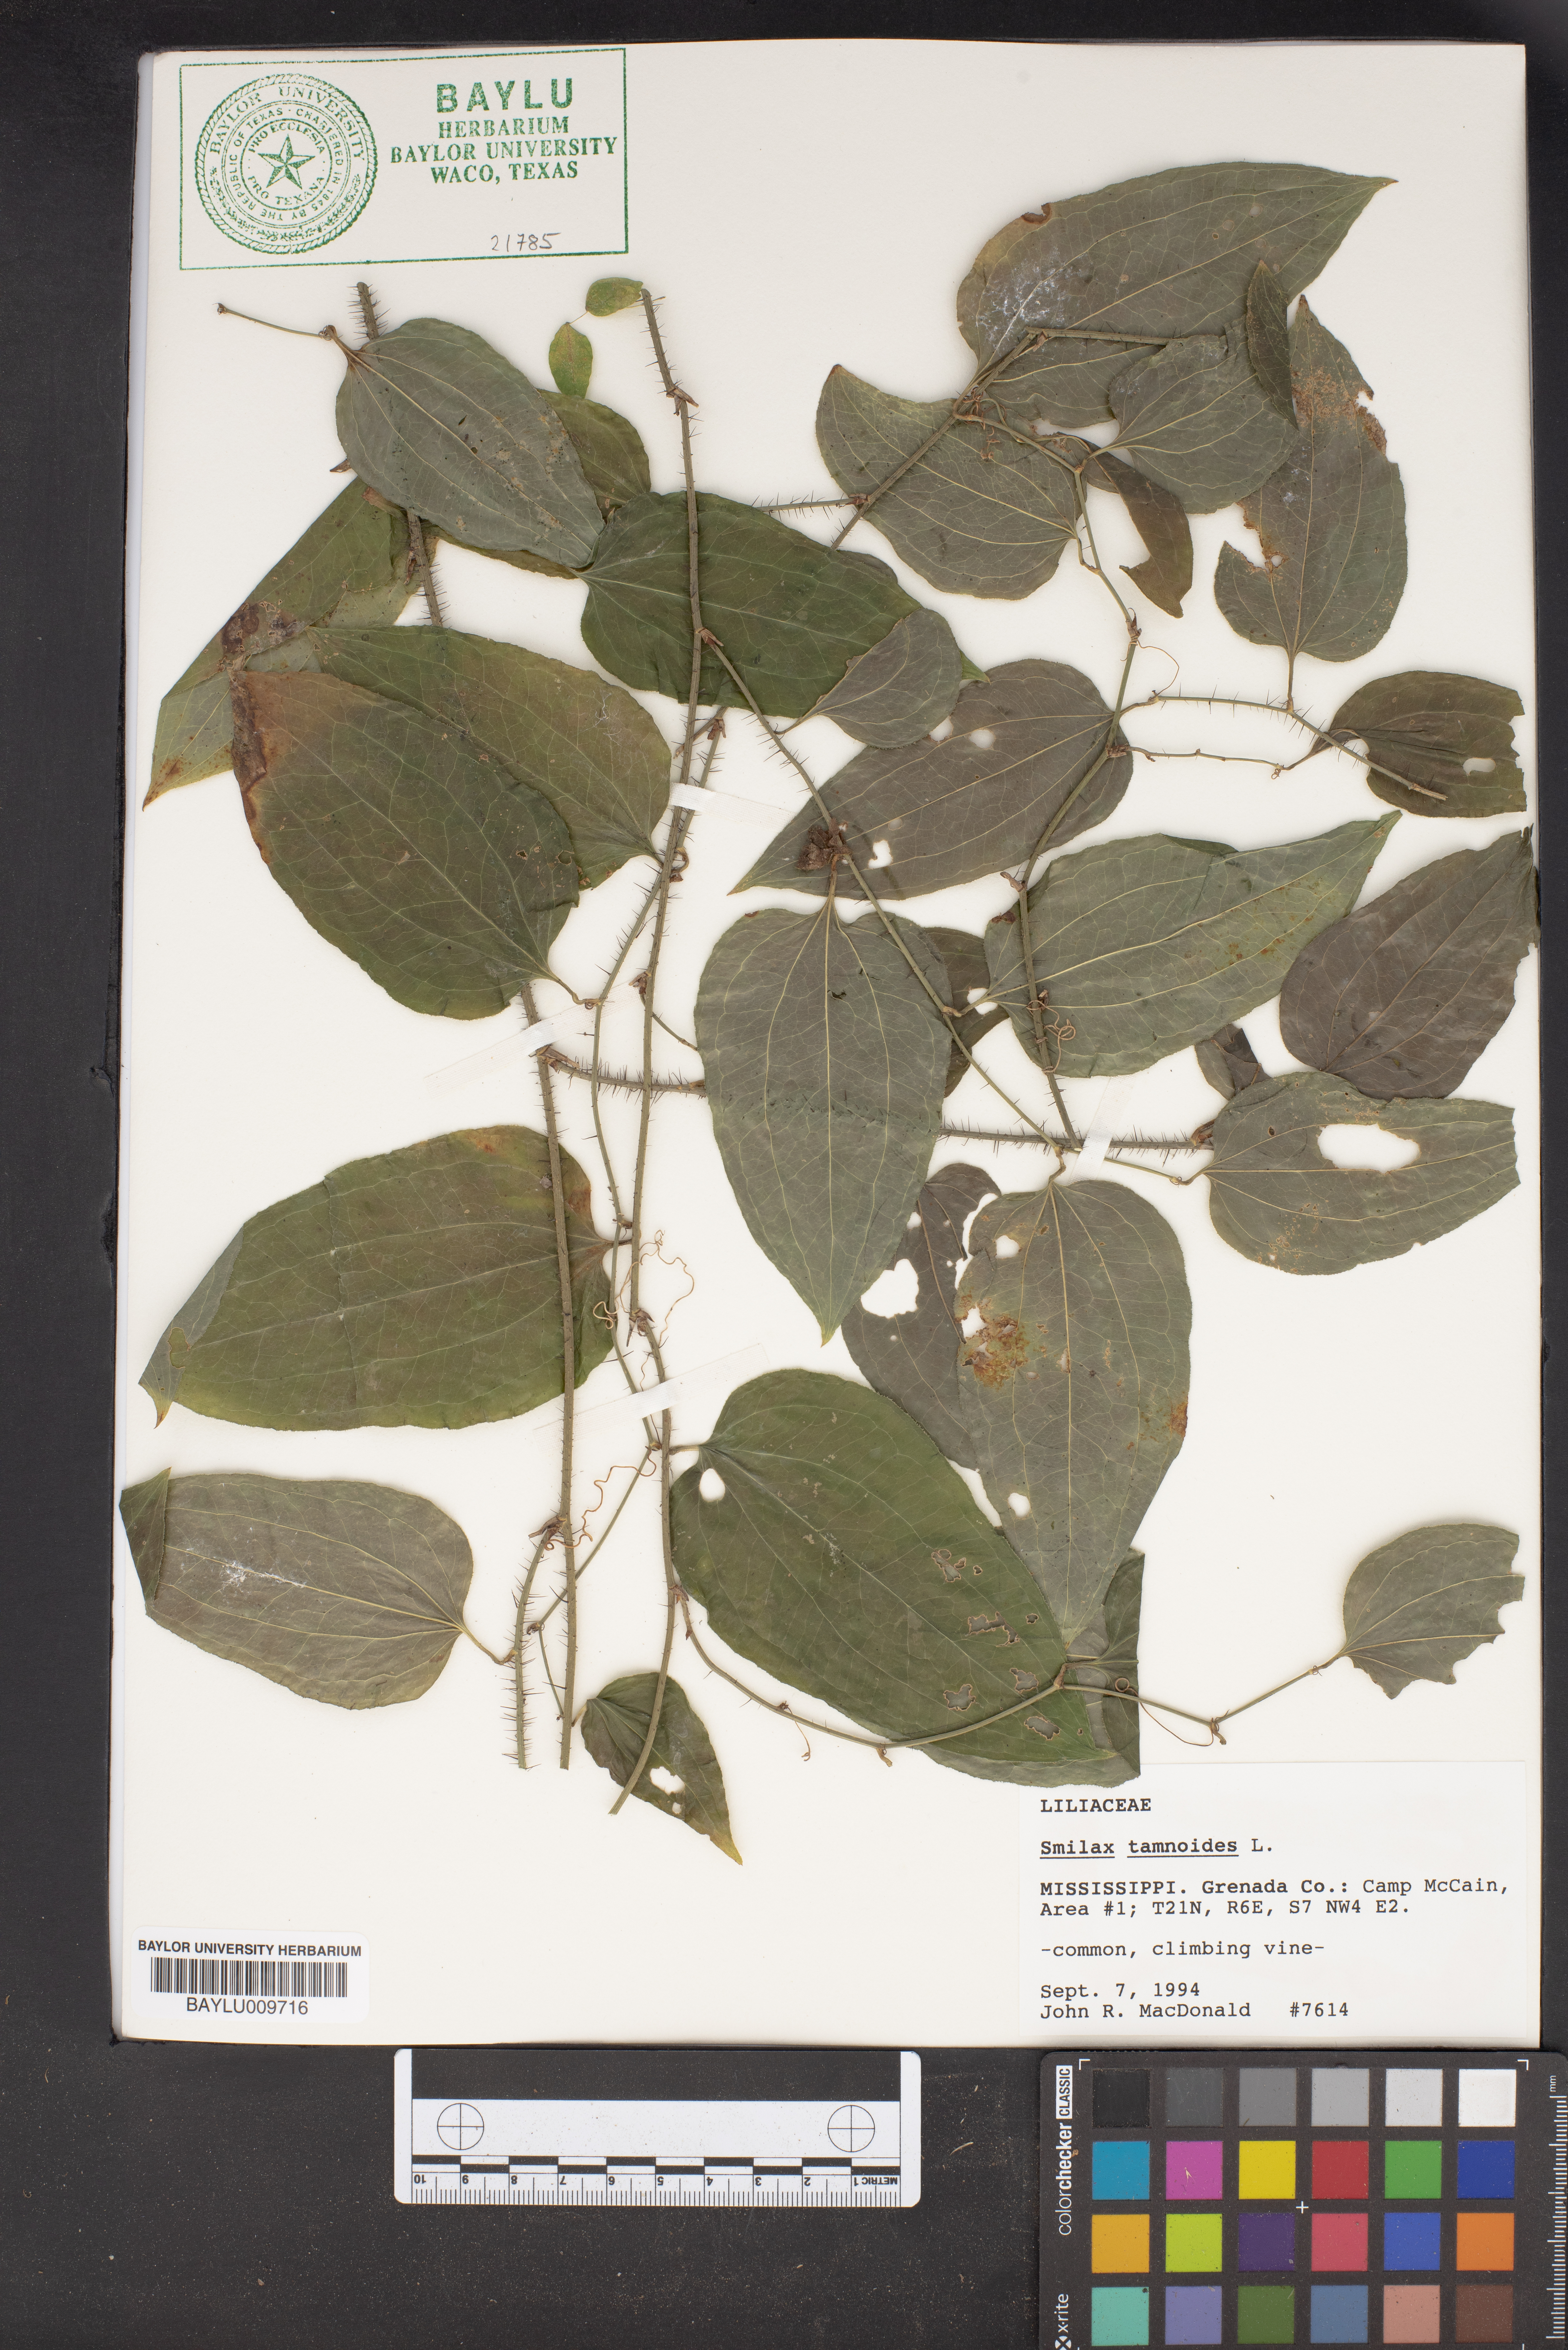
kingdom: Plantae
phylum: Tracheophyta
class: Liliopsida
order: Liliales
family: Smilacaceae
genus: Smilax
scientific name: Smilax tamnoides
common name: Hellfetter
